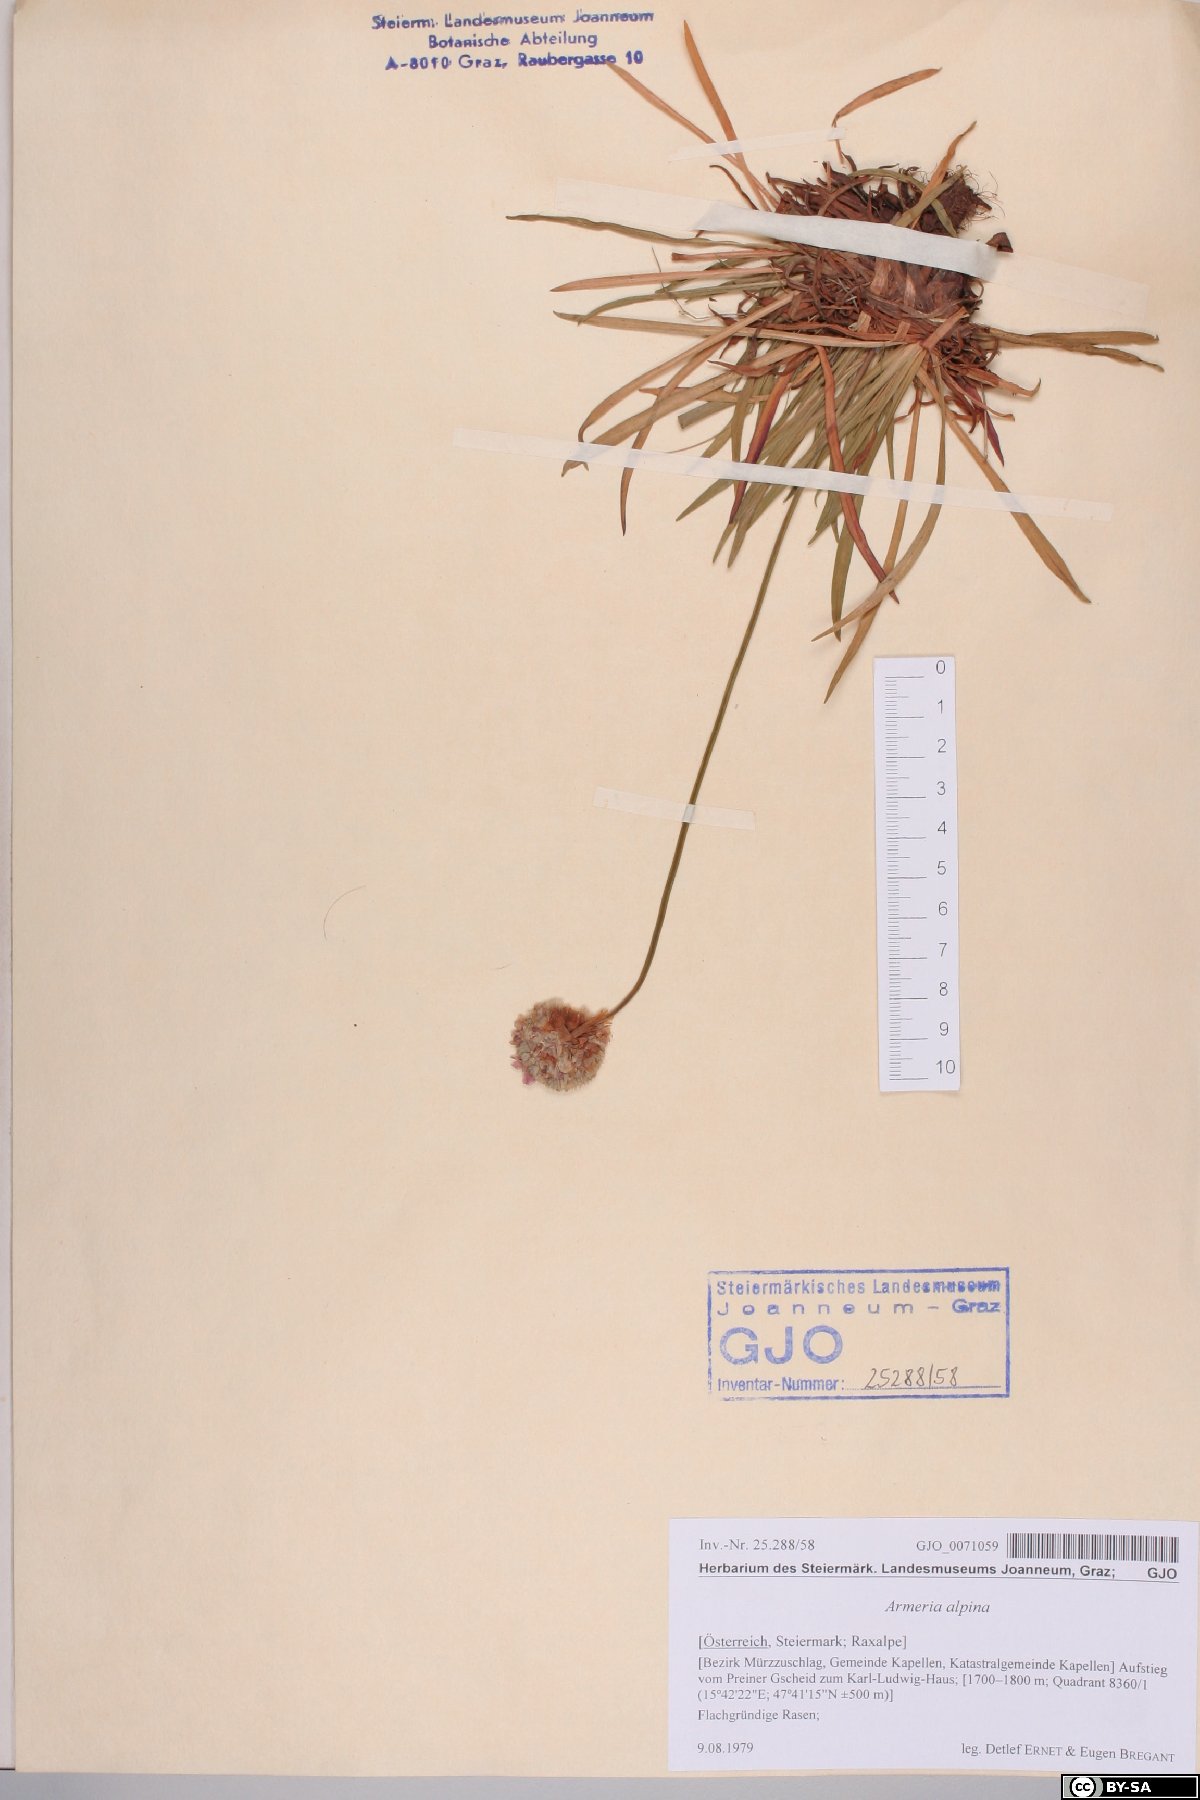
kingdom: Plantae
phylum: Tracheophyta
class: Magnoliopsida
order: Caryophyllales
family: Plumbaginaceae
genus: Armeria
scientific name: Armeria alpina
